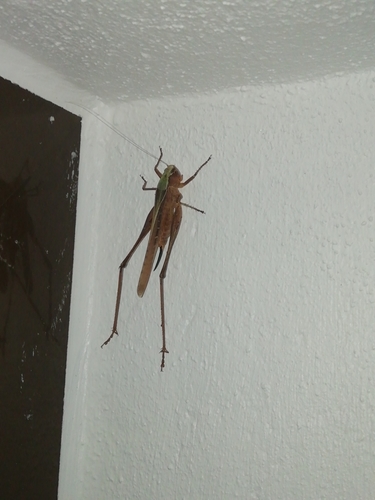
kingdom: Animalia
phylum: Arthropoda
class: Insecta
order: Orthoptera
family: Tettigoniidae
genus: Platycleis
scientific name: Platycleis
